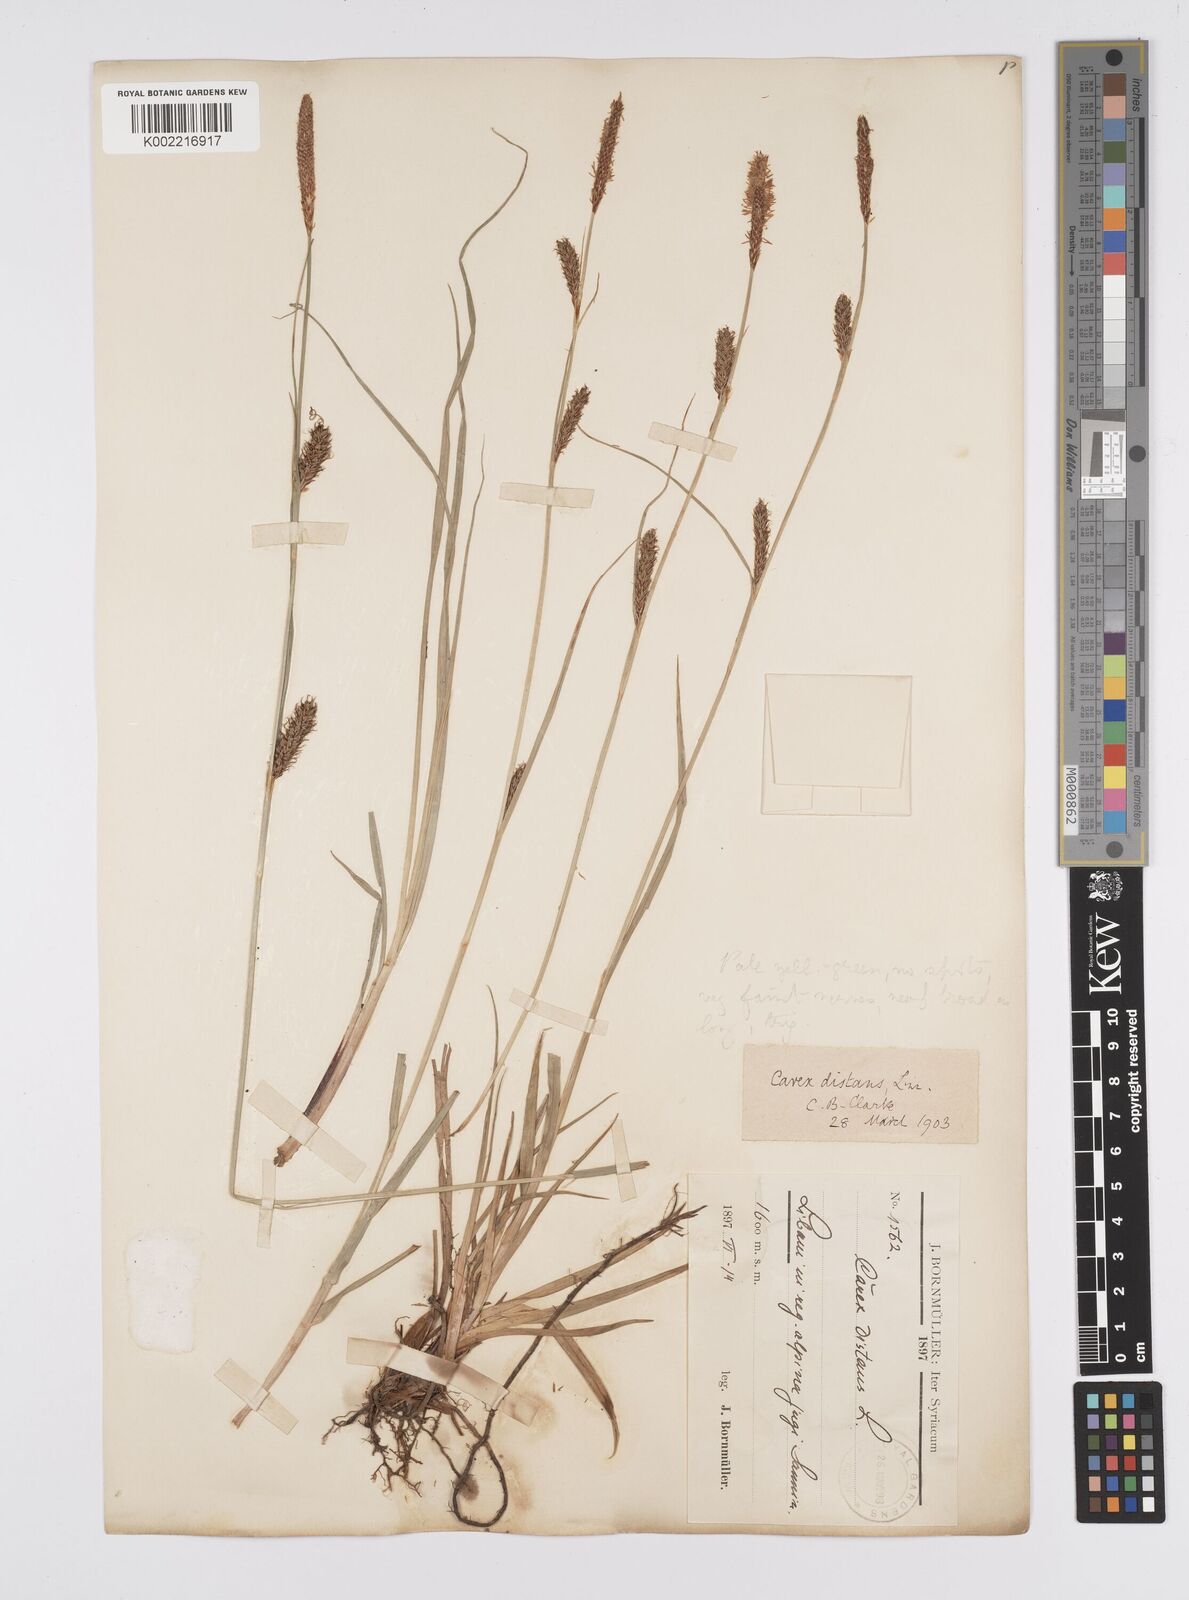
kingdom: Plantae
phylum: Tracheophyta
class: Liliopsida
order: Poales
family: Cyperaceae
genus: Carex
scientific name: Carex distans
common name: Distant sedge
